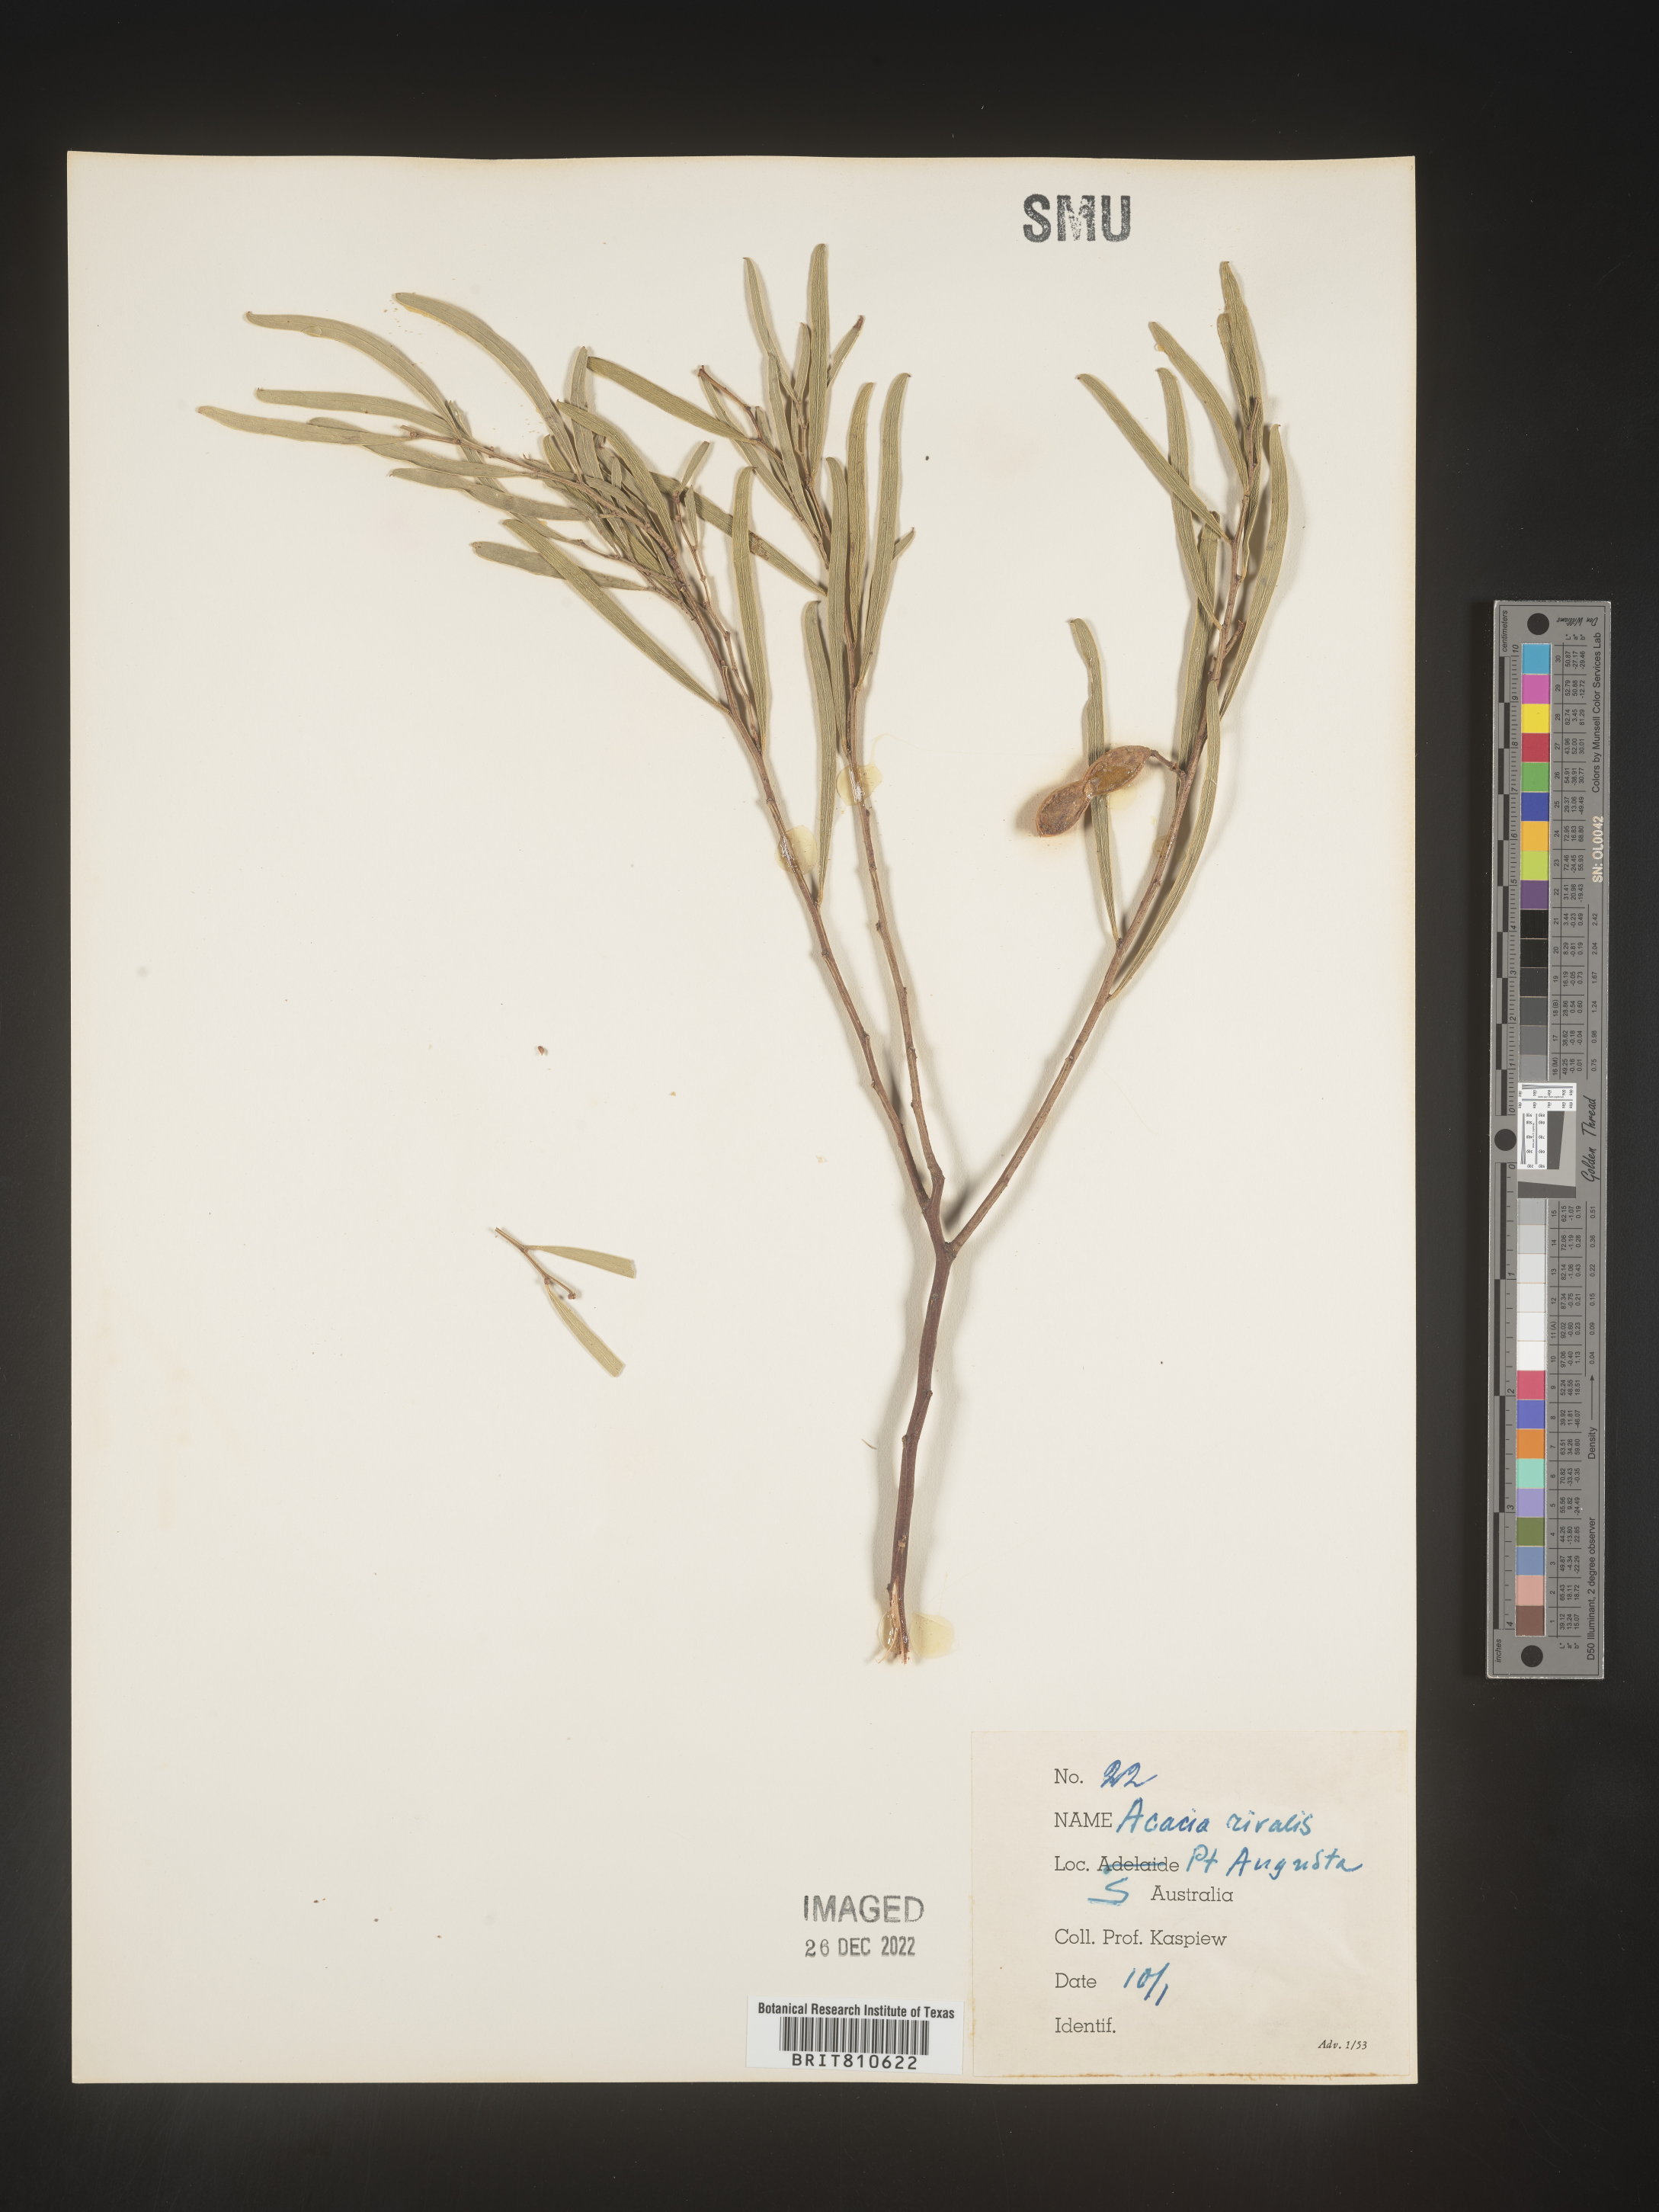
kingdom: Plantae
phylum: Tracheophyta
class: Magnoliopsida
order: Fabales
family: Fabaceae
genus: Acacia
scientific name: Acacia
